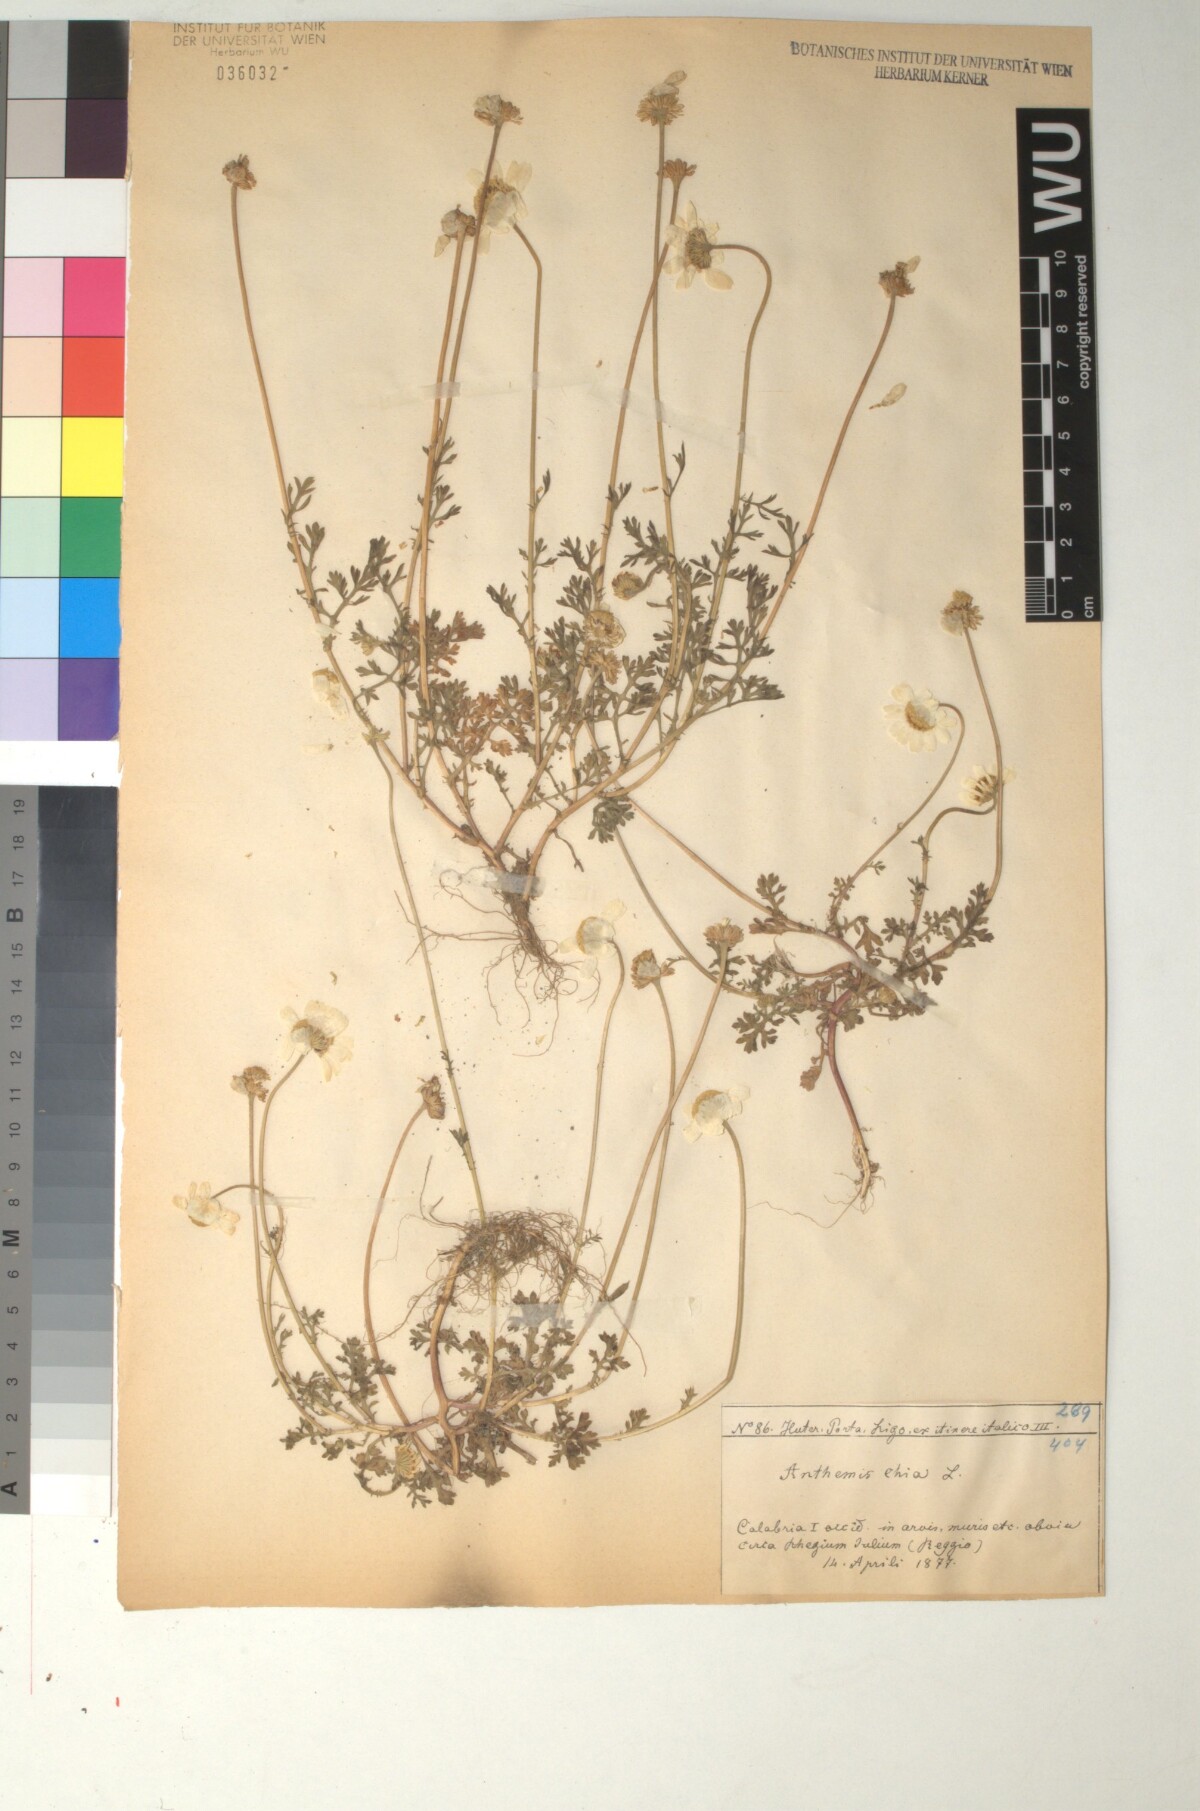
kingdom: Plantae
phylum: Tracheophyta
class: Magnoliopsida
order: Asterales
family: Asteraceae
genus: Anthemis
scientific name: Anthemis chia
